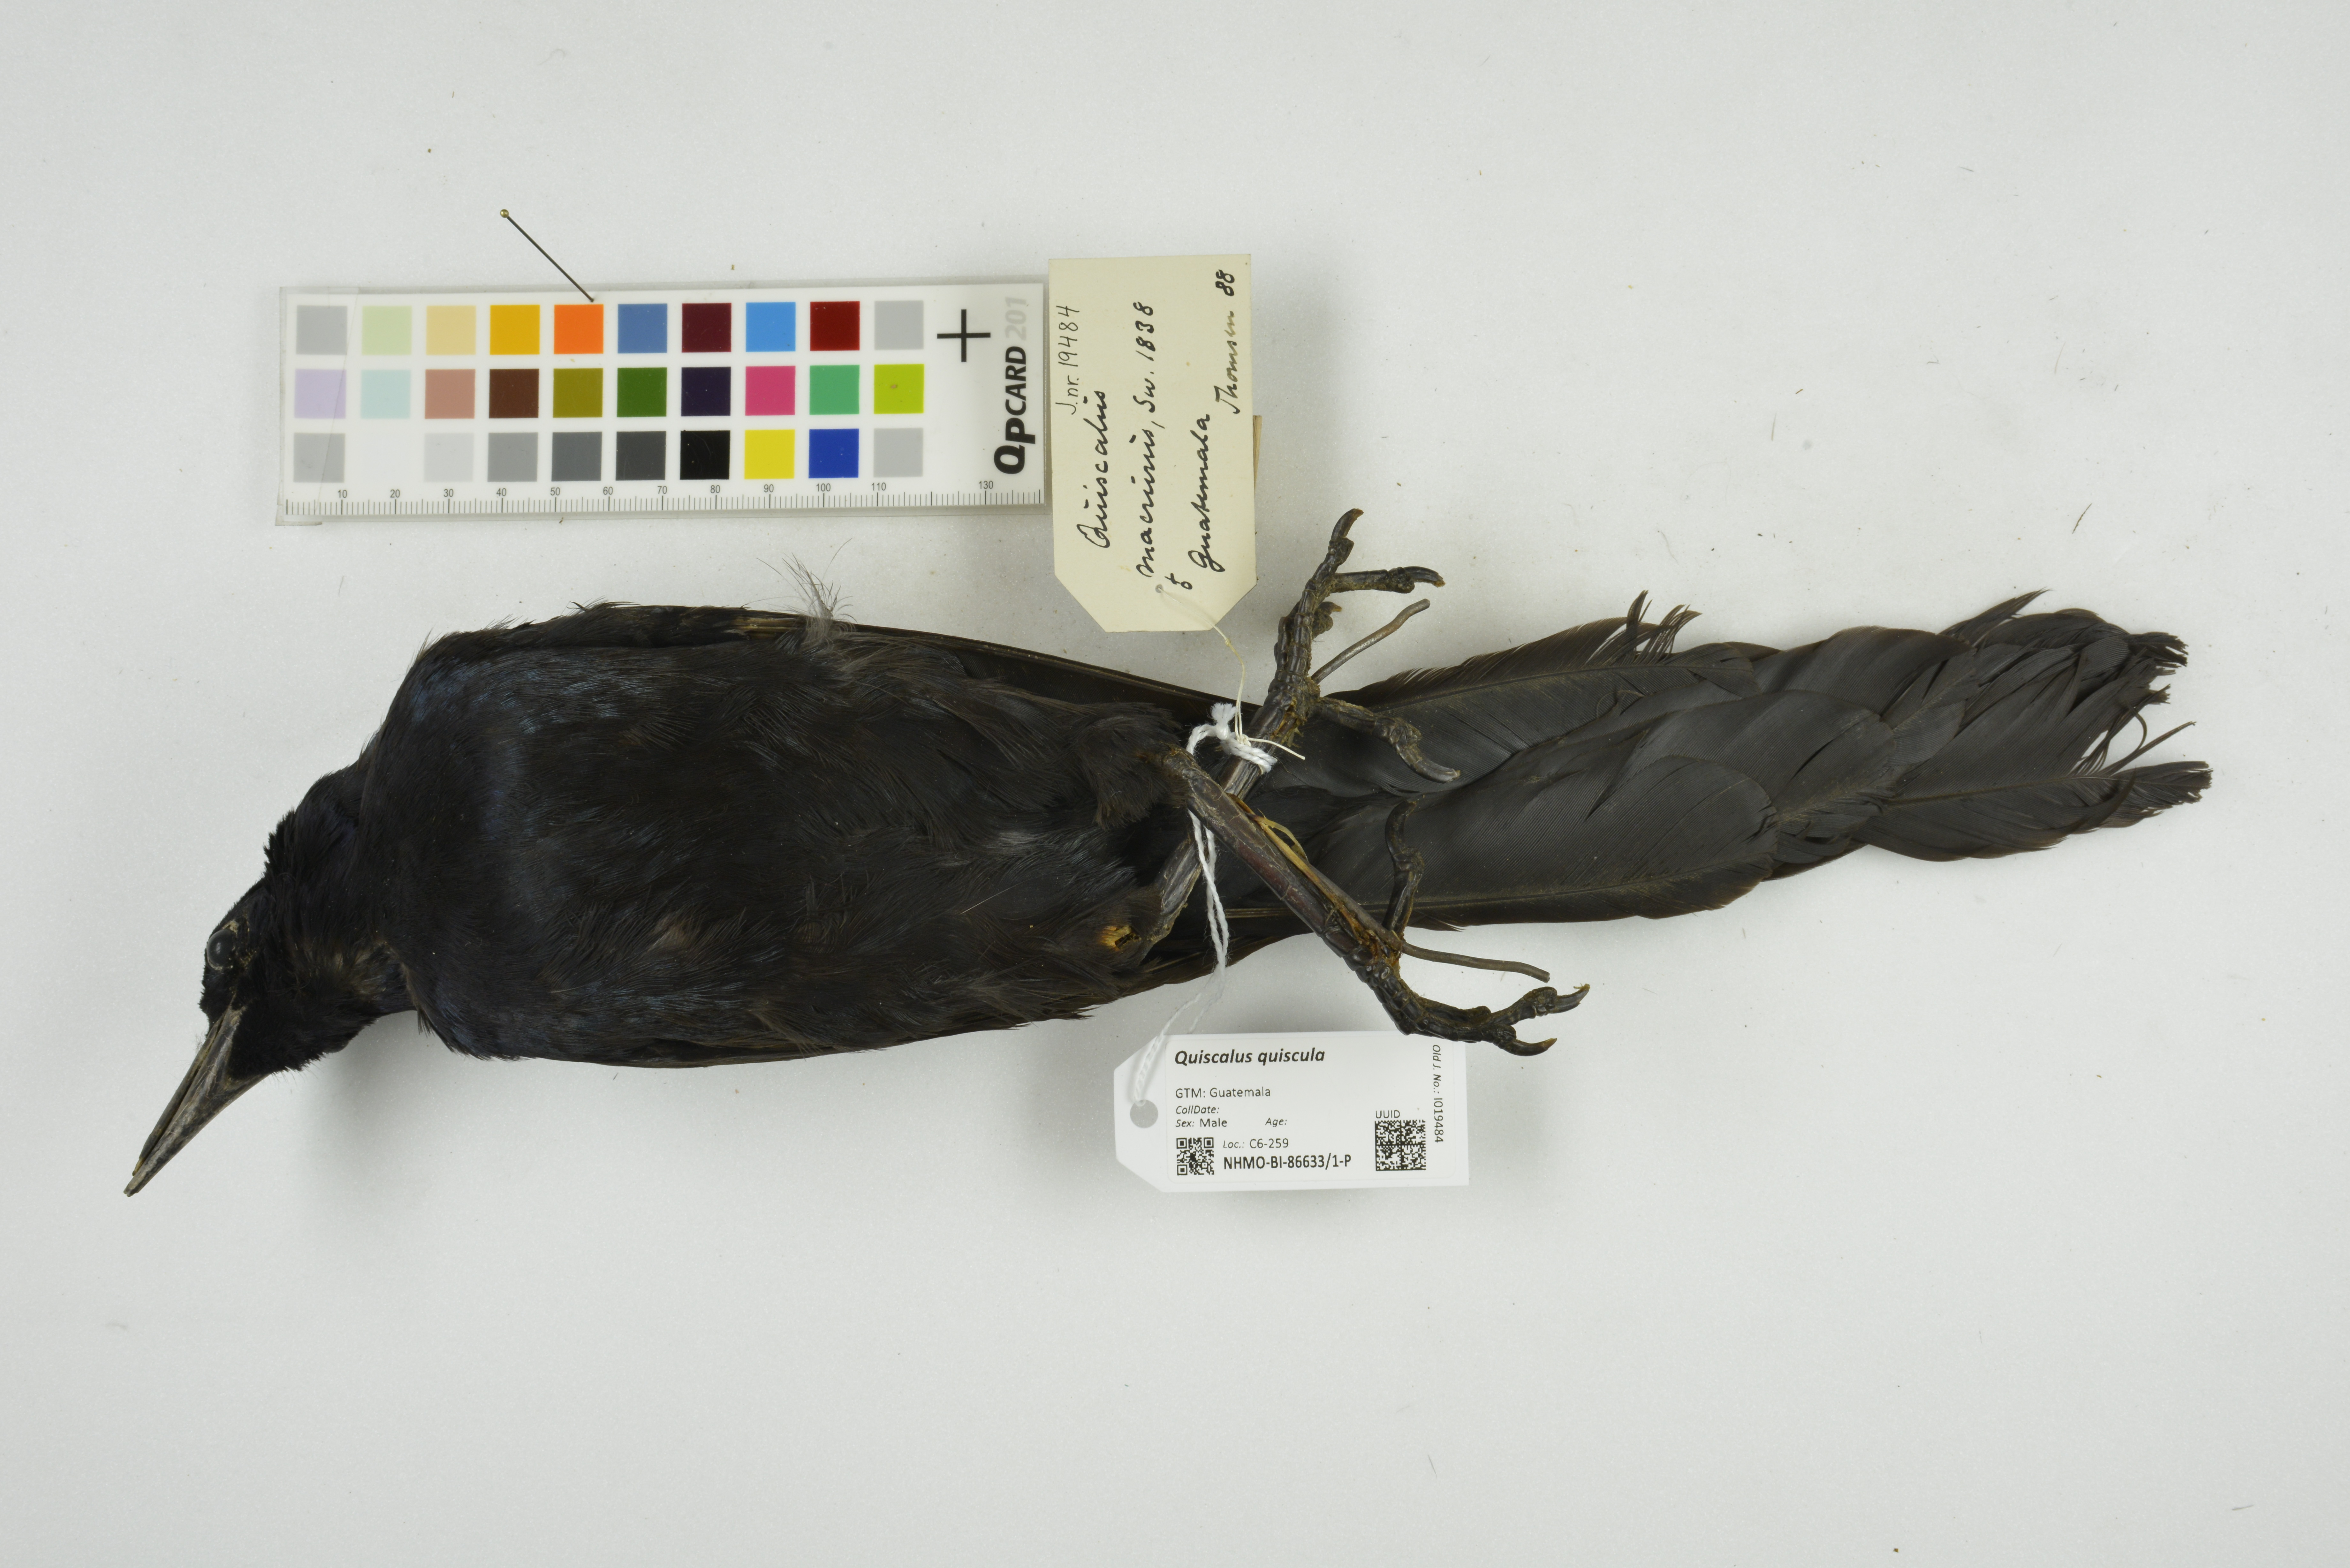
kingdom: Animalia
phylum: Chordata
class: Aves
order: Passeriformes
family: Icteridae
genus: Quiscalus
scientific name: Quiscalus quiscula
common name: Common grackle
